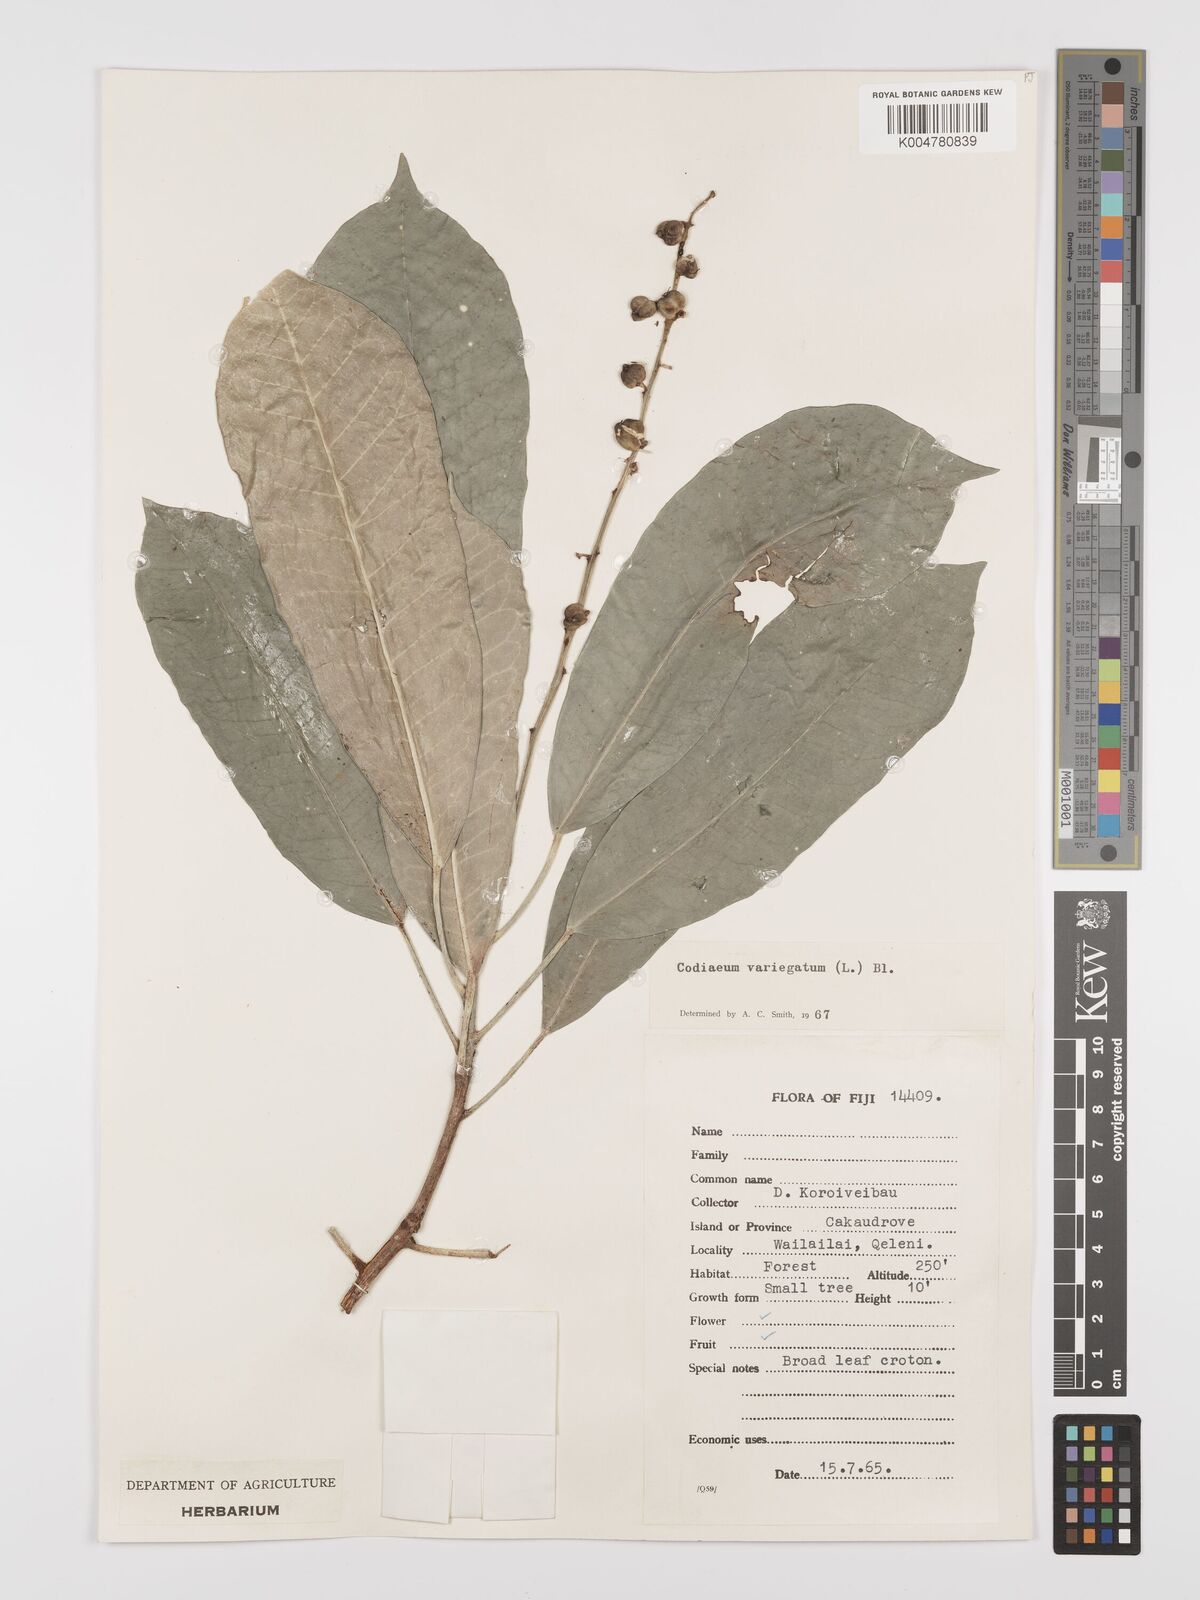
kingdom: Plantae
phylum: Tracheophyta
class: Magnoliopsida
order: Malpighiales
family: Euphorbiaceae
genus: Codiaeum
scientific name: Codiaeum variegatum
